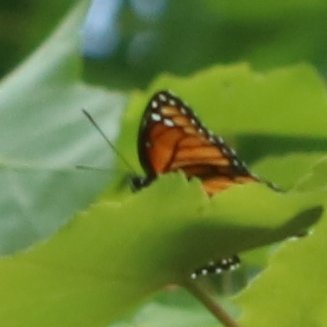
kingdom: Animalia
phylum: Arthropoda
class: Insecta
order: Lepidoptera
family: Nymphalidae
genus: Limenitis
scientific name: Limenitis archippus
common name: Viceroy
